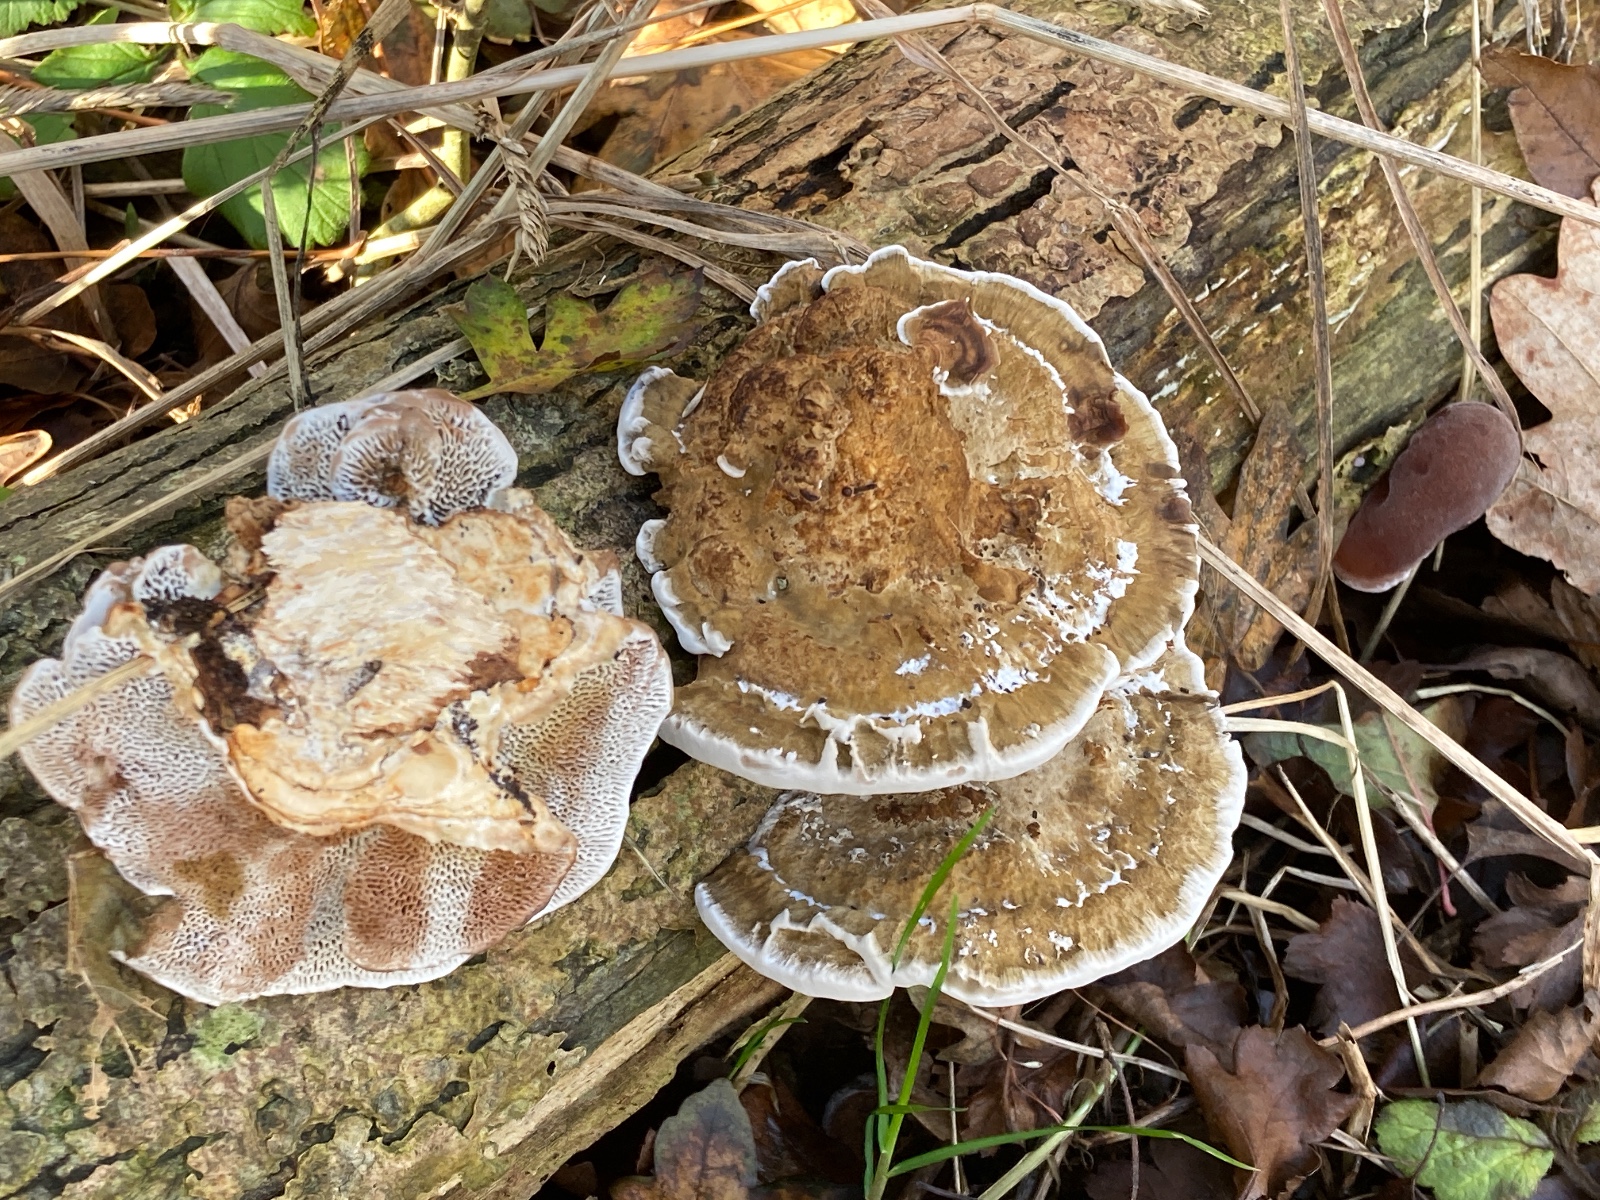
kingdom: Fungi
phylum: Basidiomycota
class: Agaricomycetes
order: Polyporales
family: Polyporaceae
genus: Daedaleopsis
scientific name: Daedaleopsis confragosa
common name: rødmende læderporesvamp
